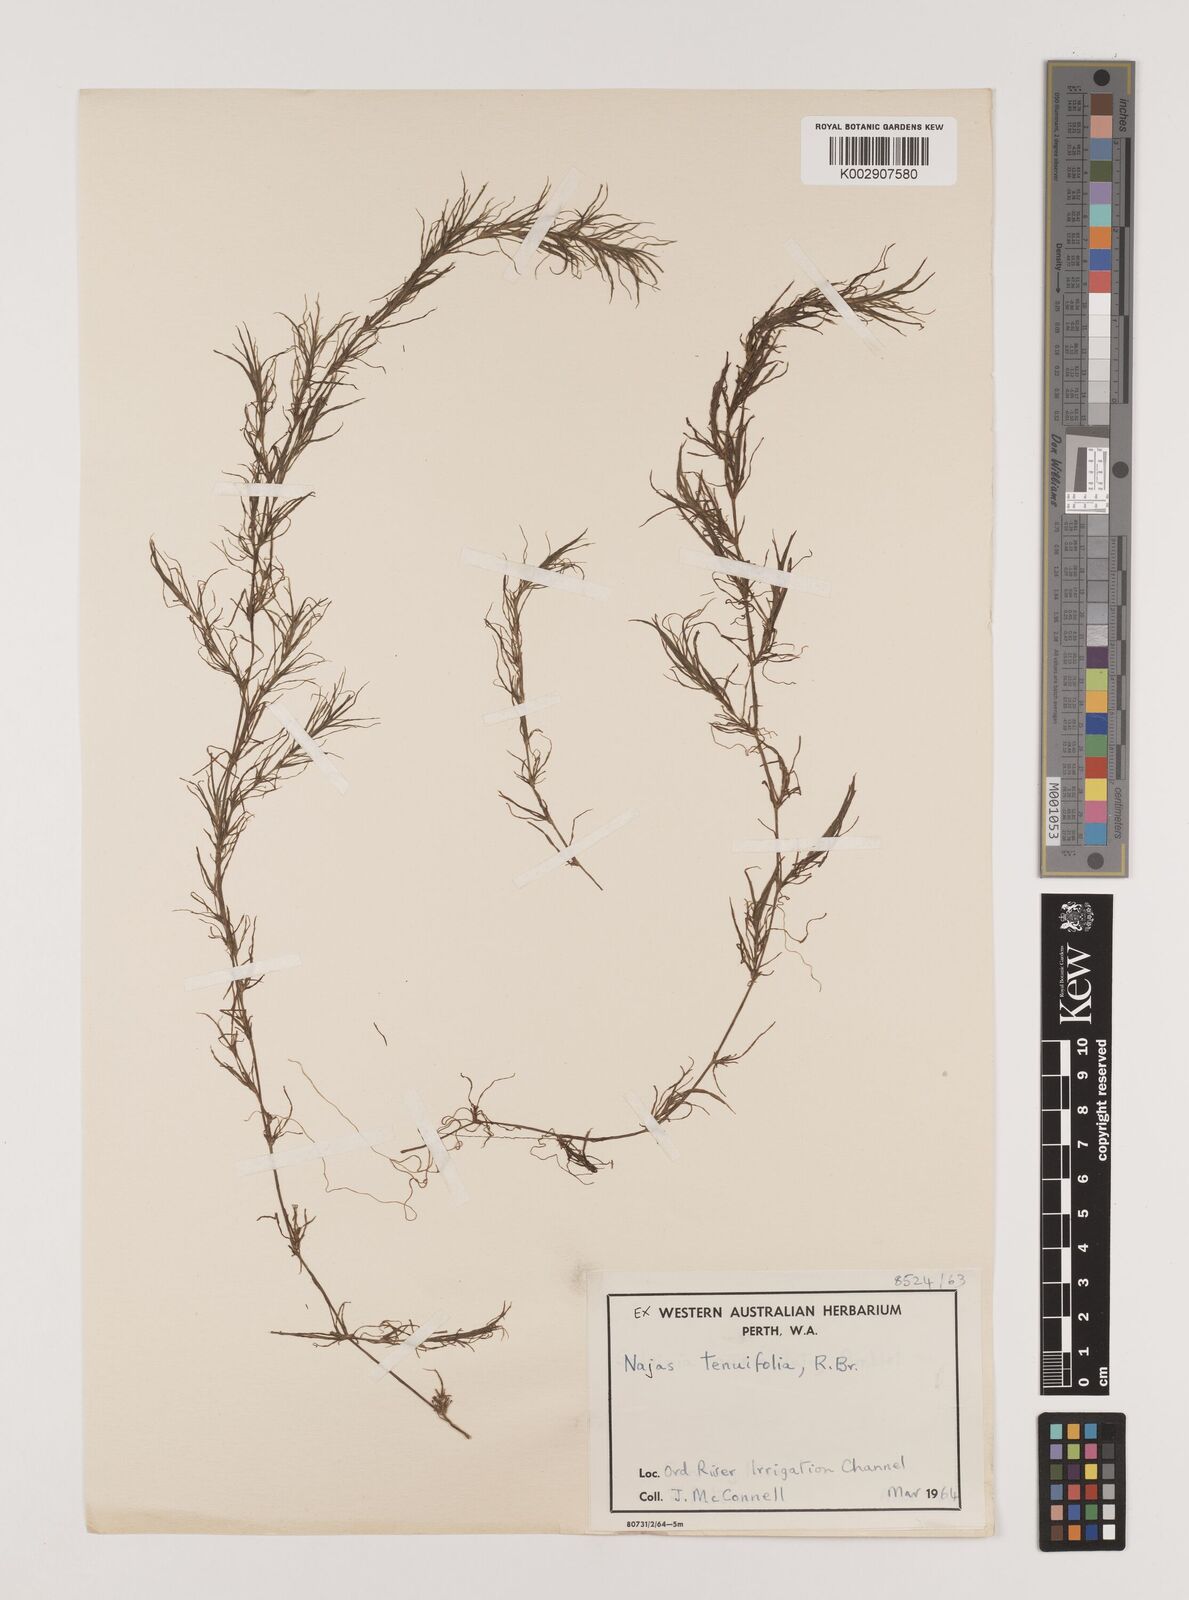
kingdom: Plantae
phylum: Tracheophyta
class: Liliopsida
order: Alismatales
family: Hydrocharitaceae
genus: Najas
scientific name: Najas tenuifolia
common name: Thin-leaved naiad
